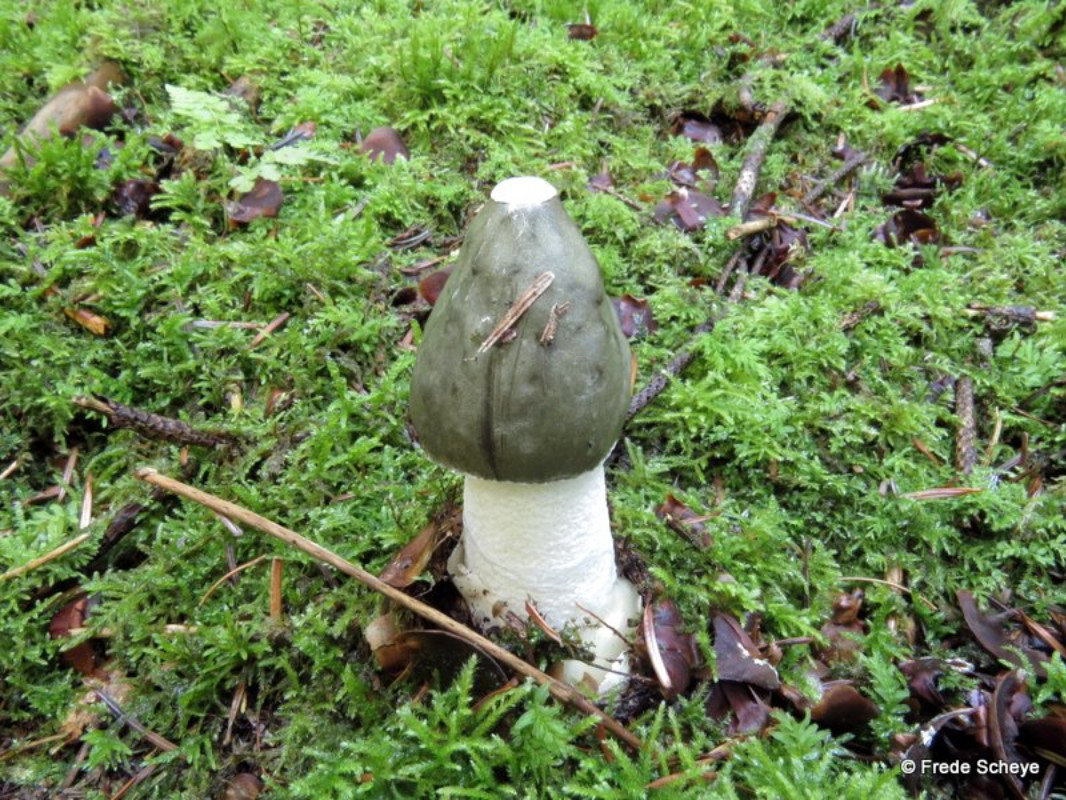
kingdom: Fungi
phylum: Basidiomycota
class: Agaricomycetes
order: Phallales
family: Phallaceae
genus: Phallus
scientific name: Phallus impudicus
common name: almindelig stinksvamp
